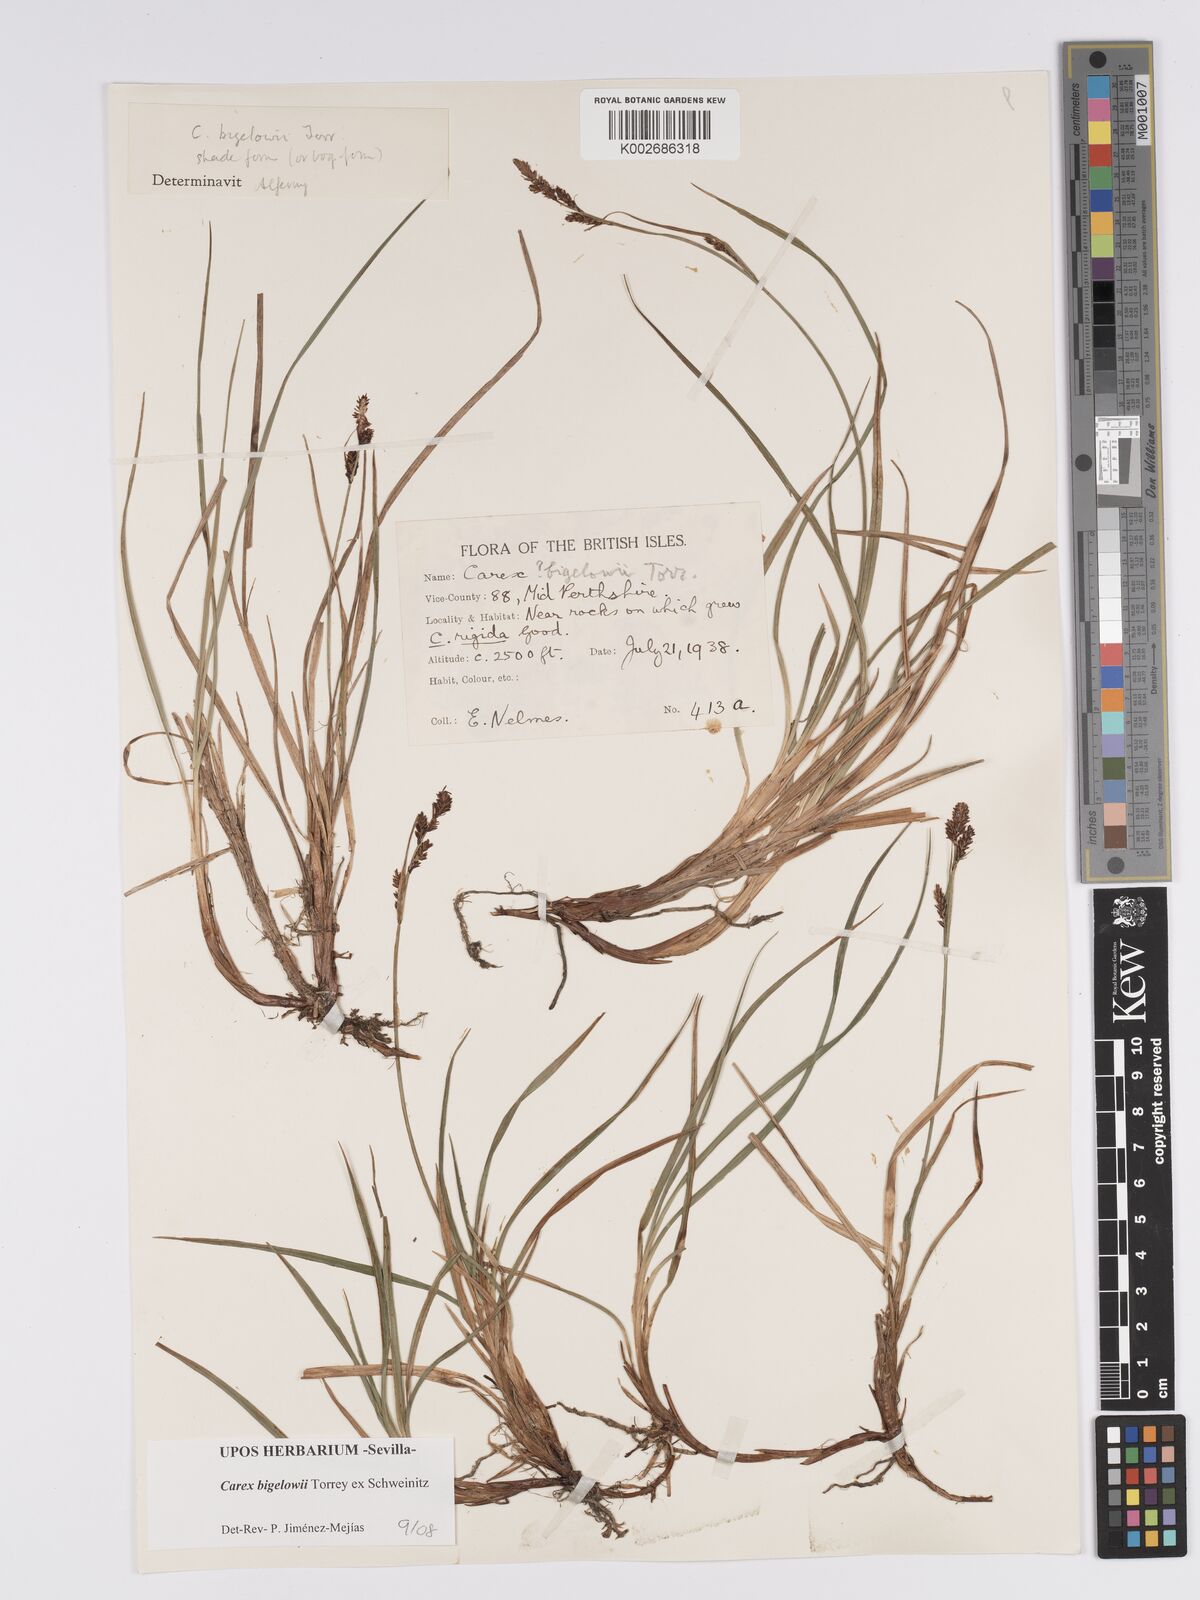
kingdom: Plantae
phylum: Tracheophyta
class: Liliopsida
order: Poales
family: Cyperaceae
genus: Carex
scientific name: Carex bigelowii
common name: Stiff sedge
